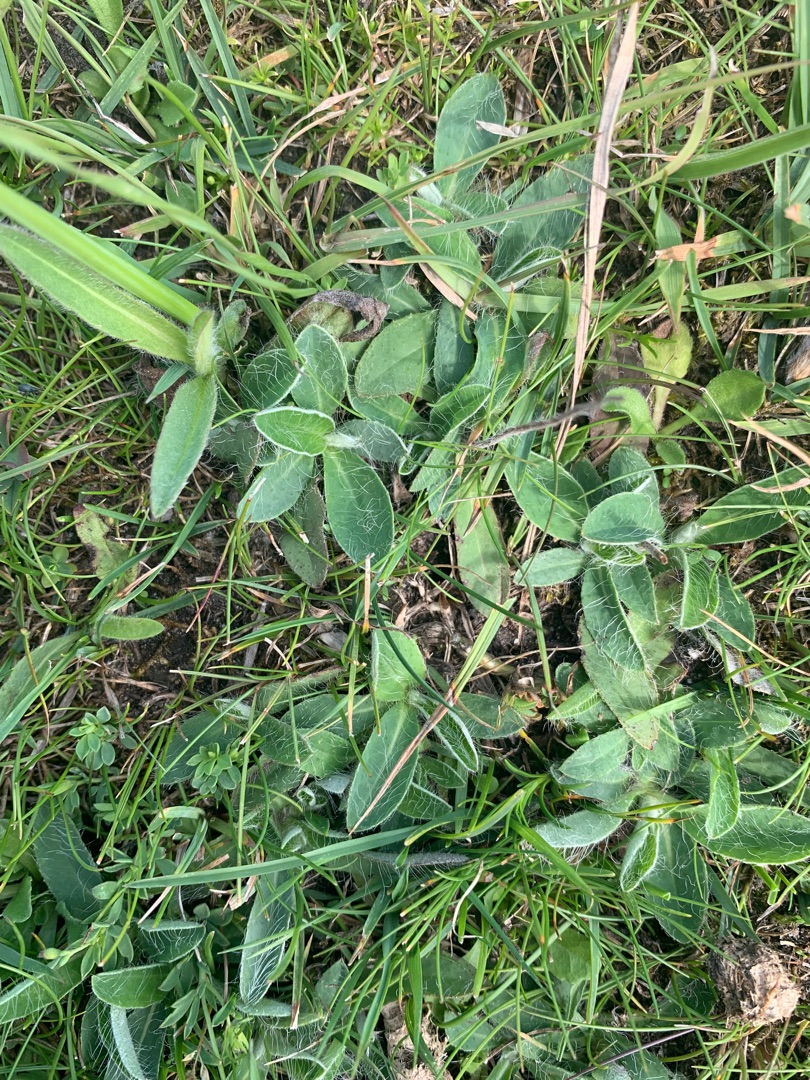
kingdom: Plantae
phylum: Tracheophyta
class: Magnoliopsida
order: Asterales
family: Asteraceae
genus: Pilosella
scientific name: Pilosella officinarum
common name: Håret høgeurt
